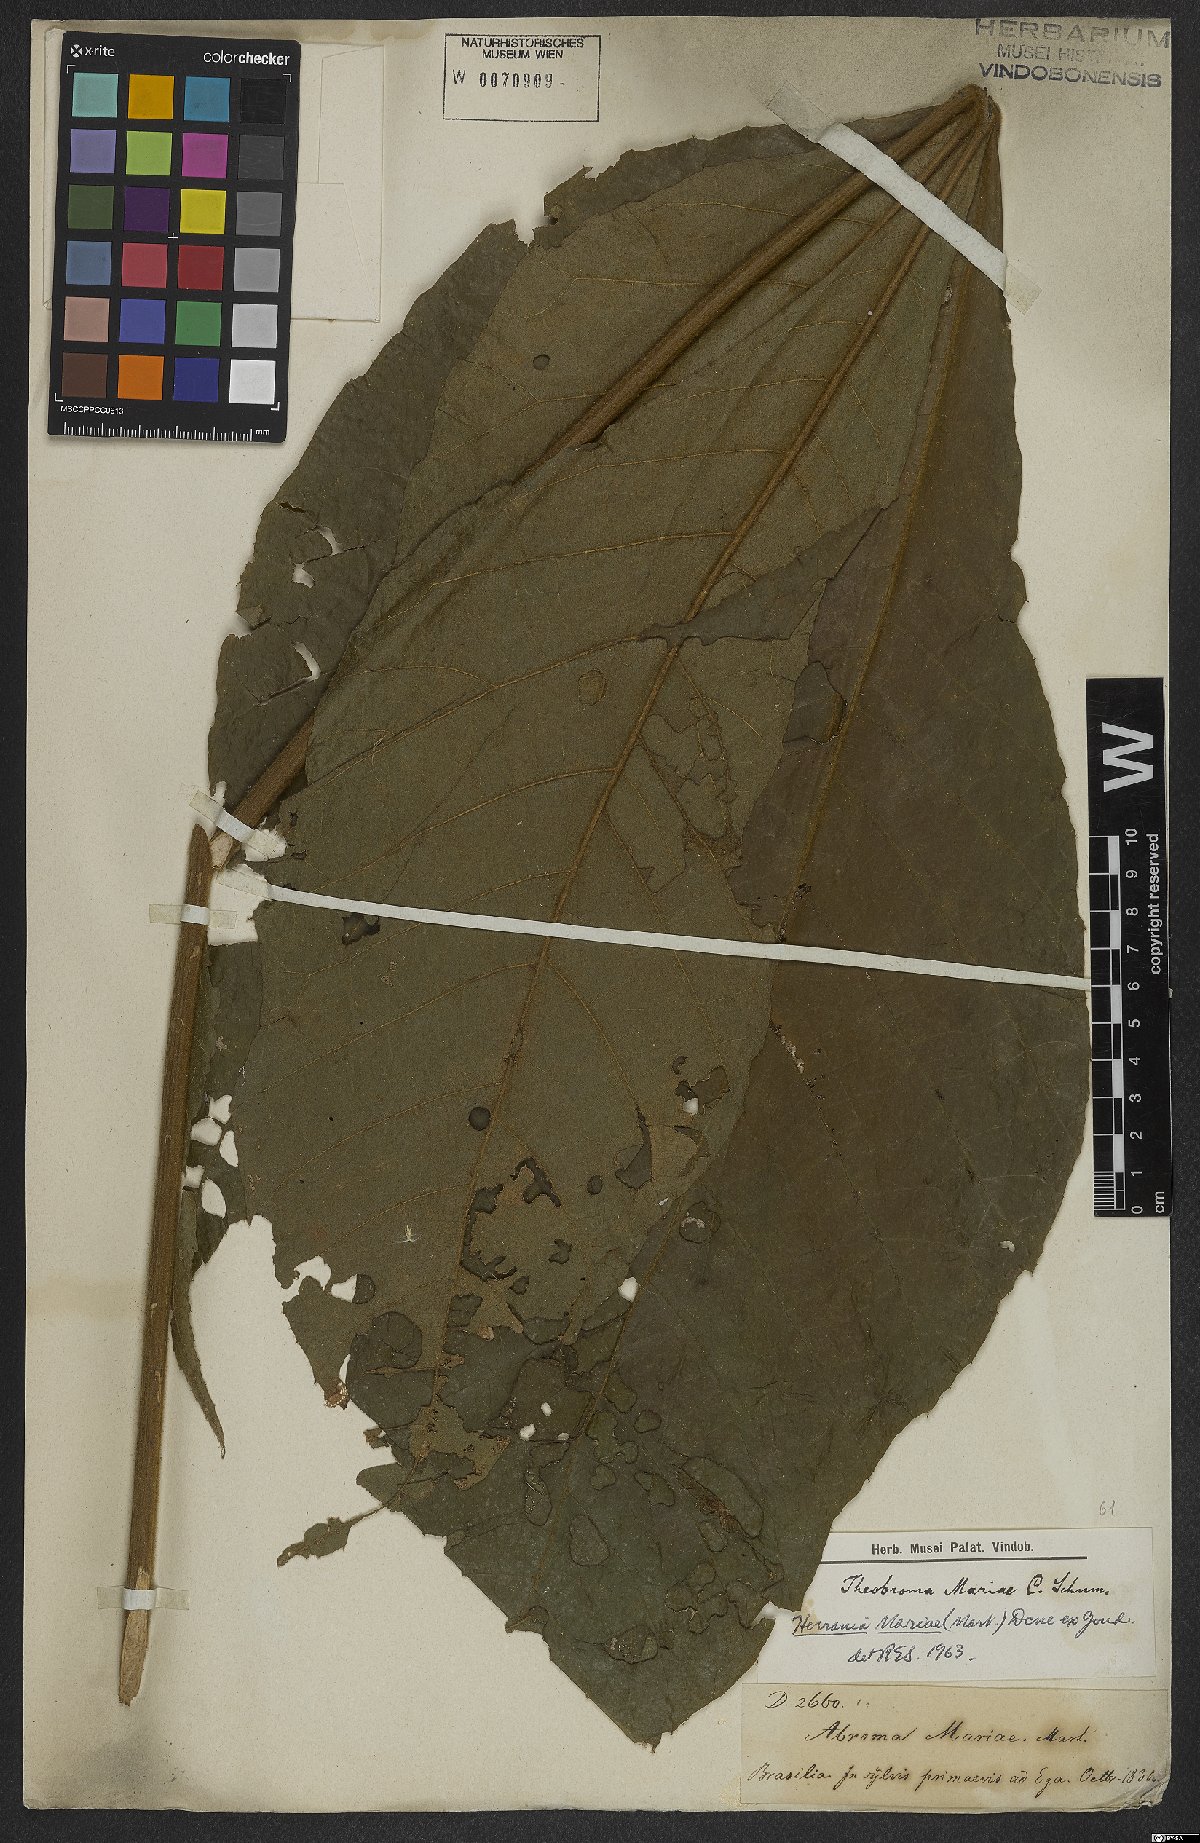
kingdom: Plantae
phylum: Tracheophyta
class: Magnoliopsida
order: Malvales
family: Malvaceae
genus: Herrania
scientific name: Herrania mariae
